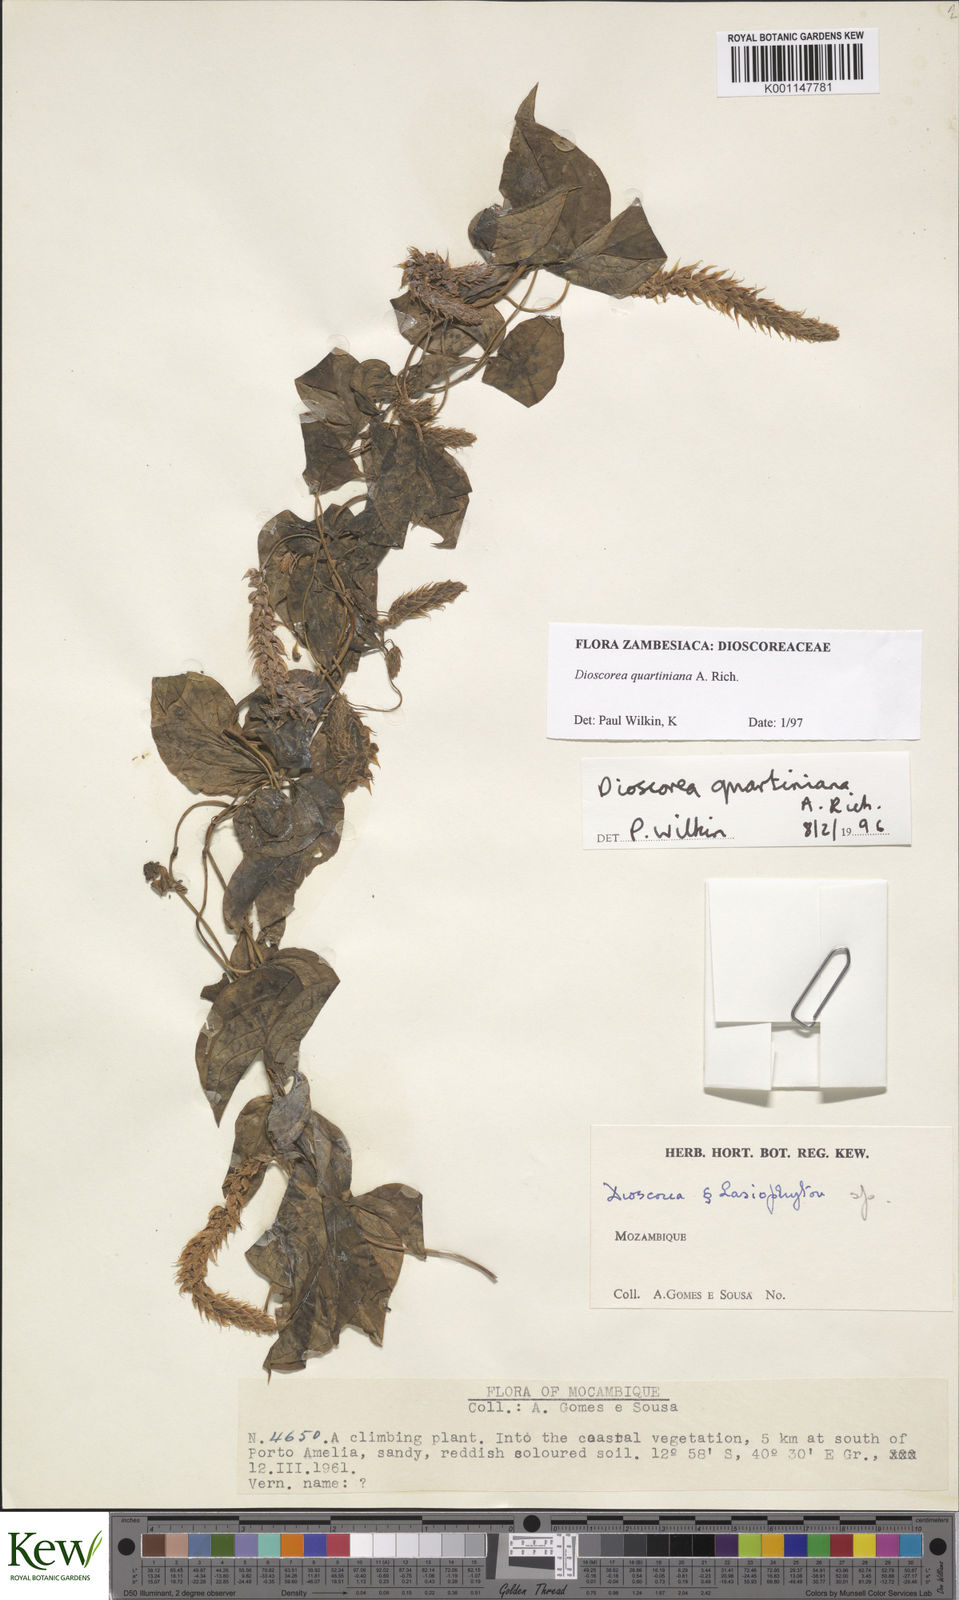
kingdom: Plantae
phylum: Tracheophyta
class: Liliopsida
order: Dioscoreales
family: Dioscoreaceae
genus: Dioscorea
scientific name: Dioscorea quartiniana
